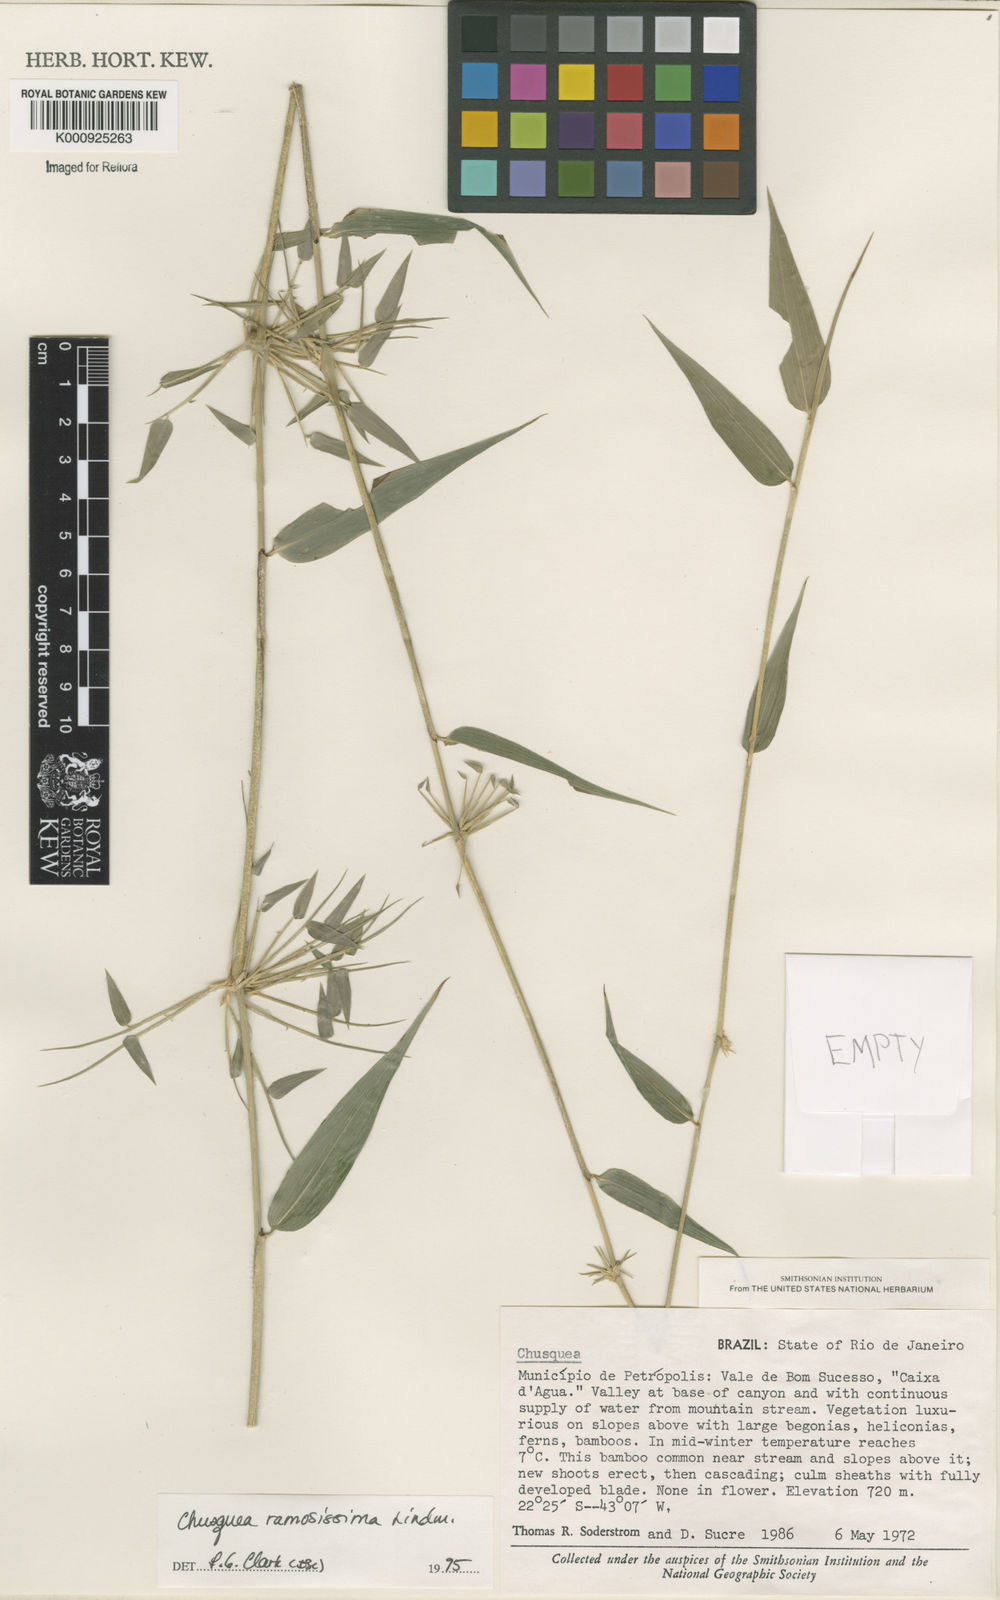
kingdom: Plantae
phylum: Tracheophyta
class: Liliopsida
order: Poales
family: Poaceae
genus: Chusquea
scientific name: Chusquea ramosissima
